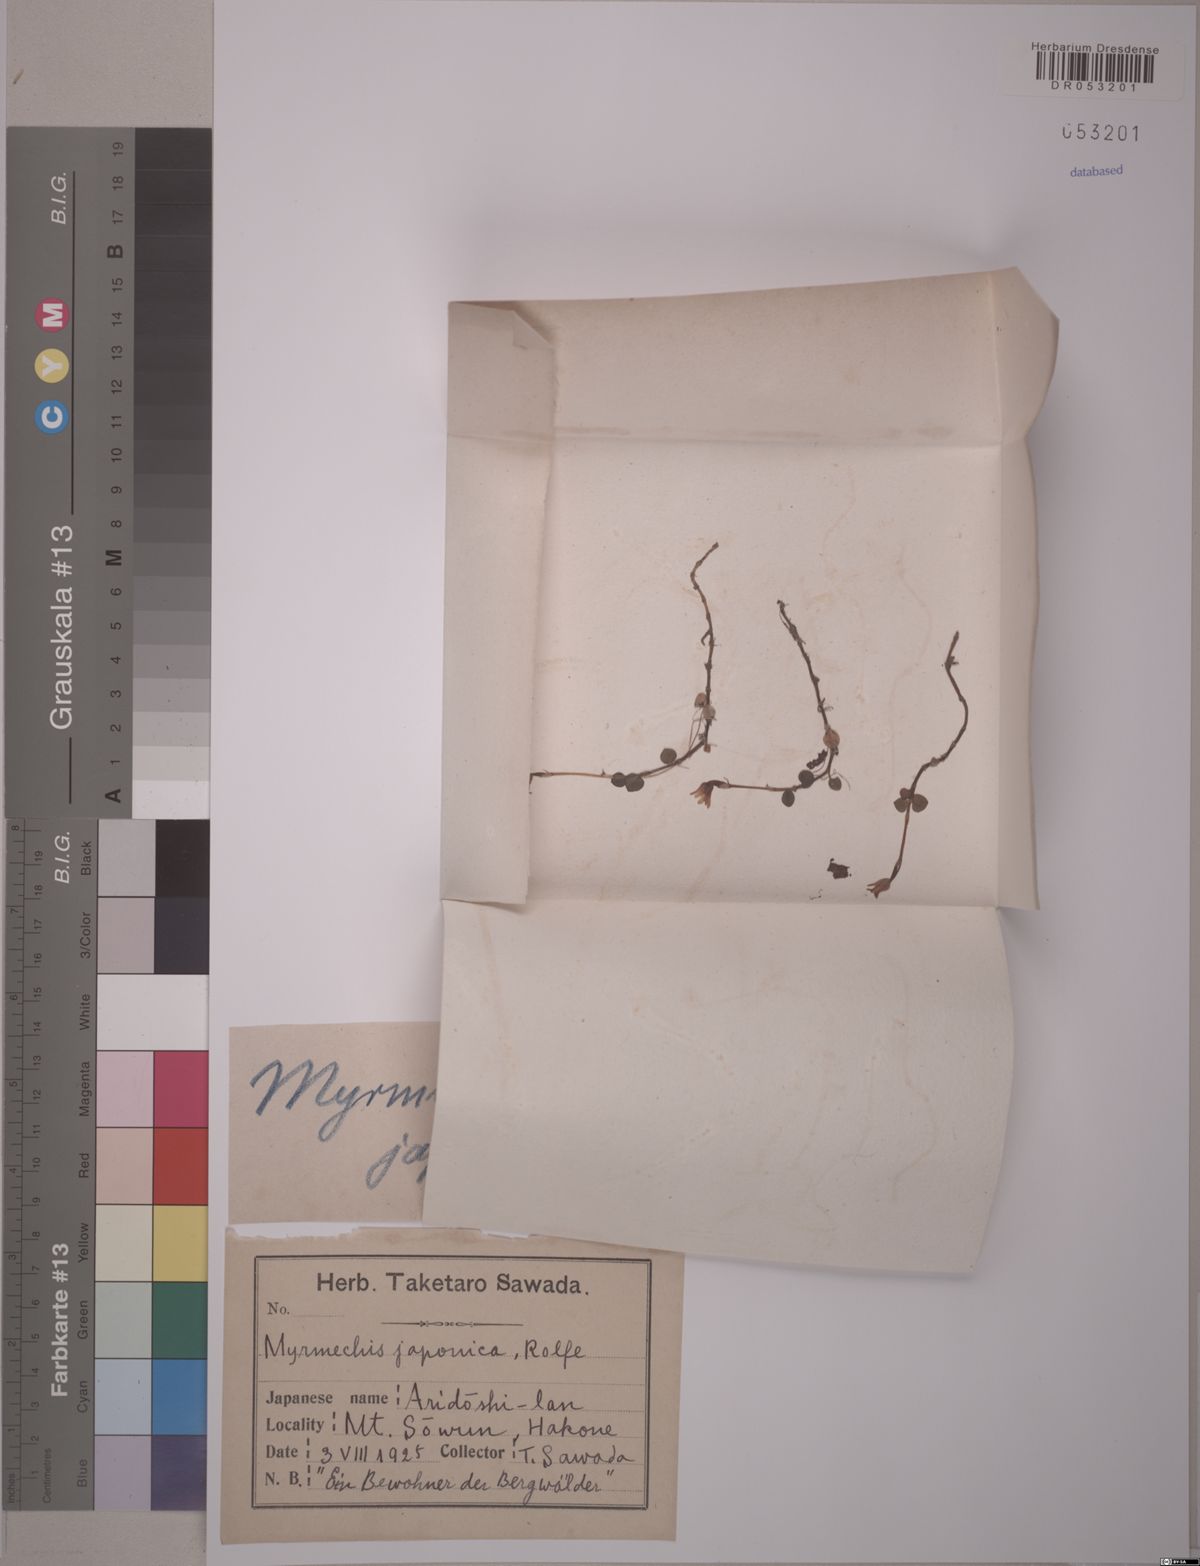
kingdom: Plantae
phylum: Tracheophyta
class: Liliopsida
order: Asparagales
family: Orchidaceae
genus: Odontochilus
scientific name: Odontochilus japonicus
